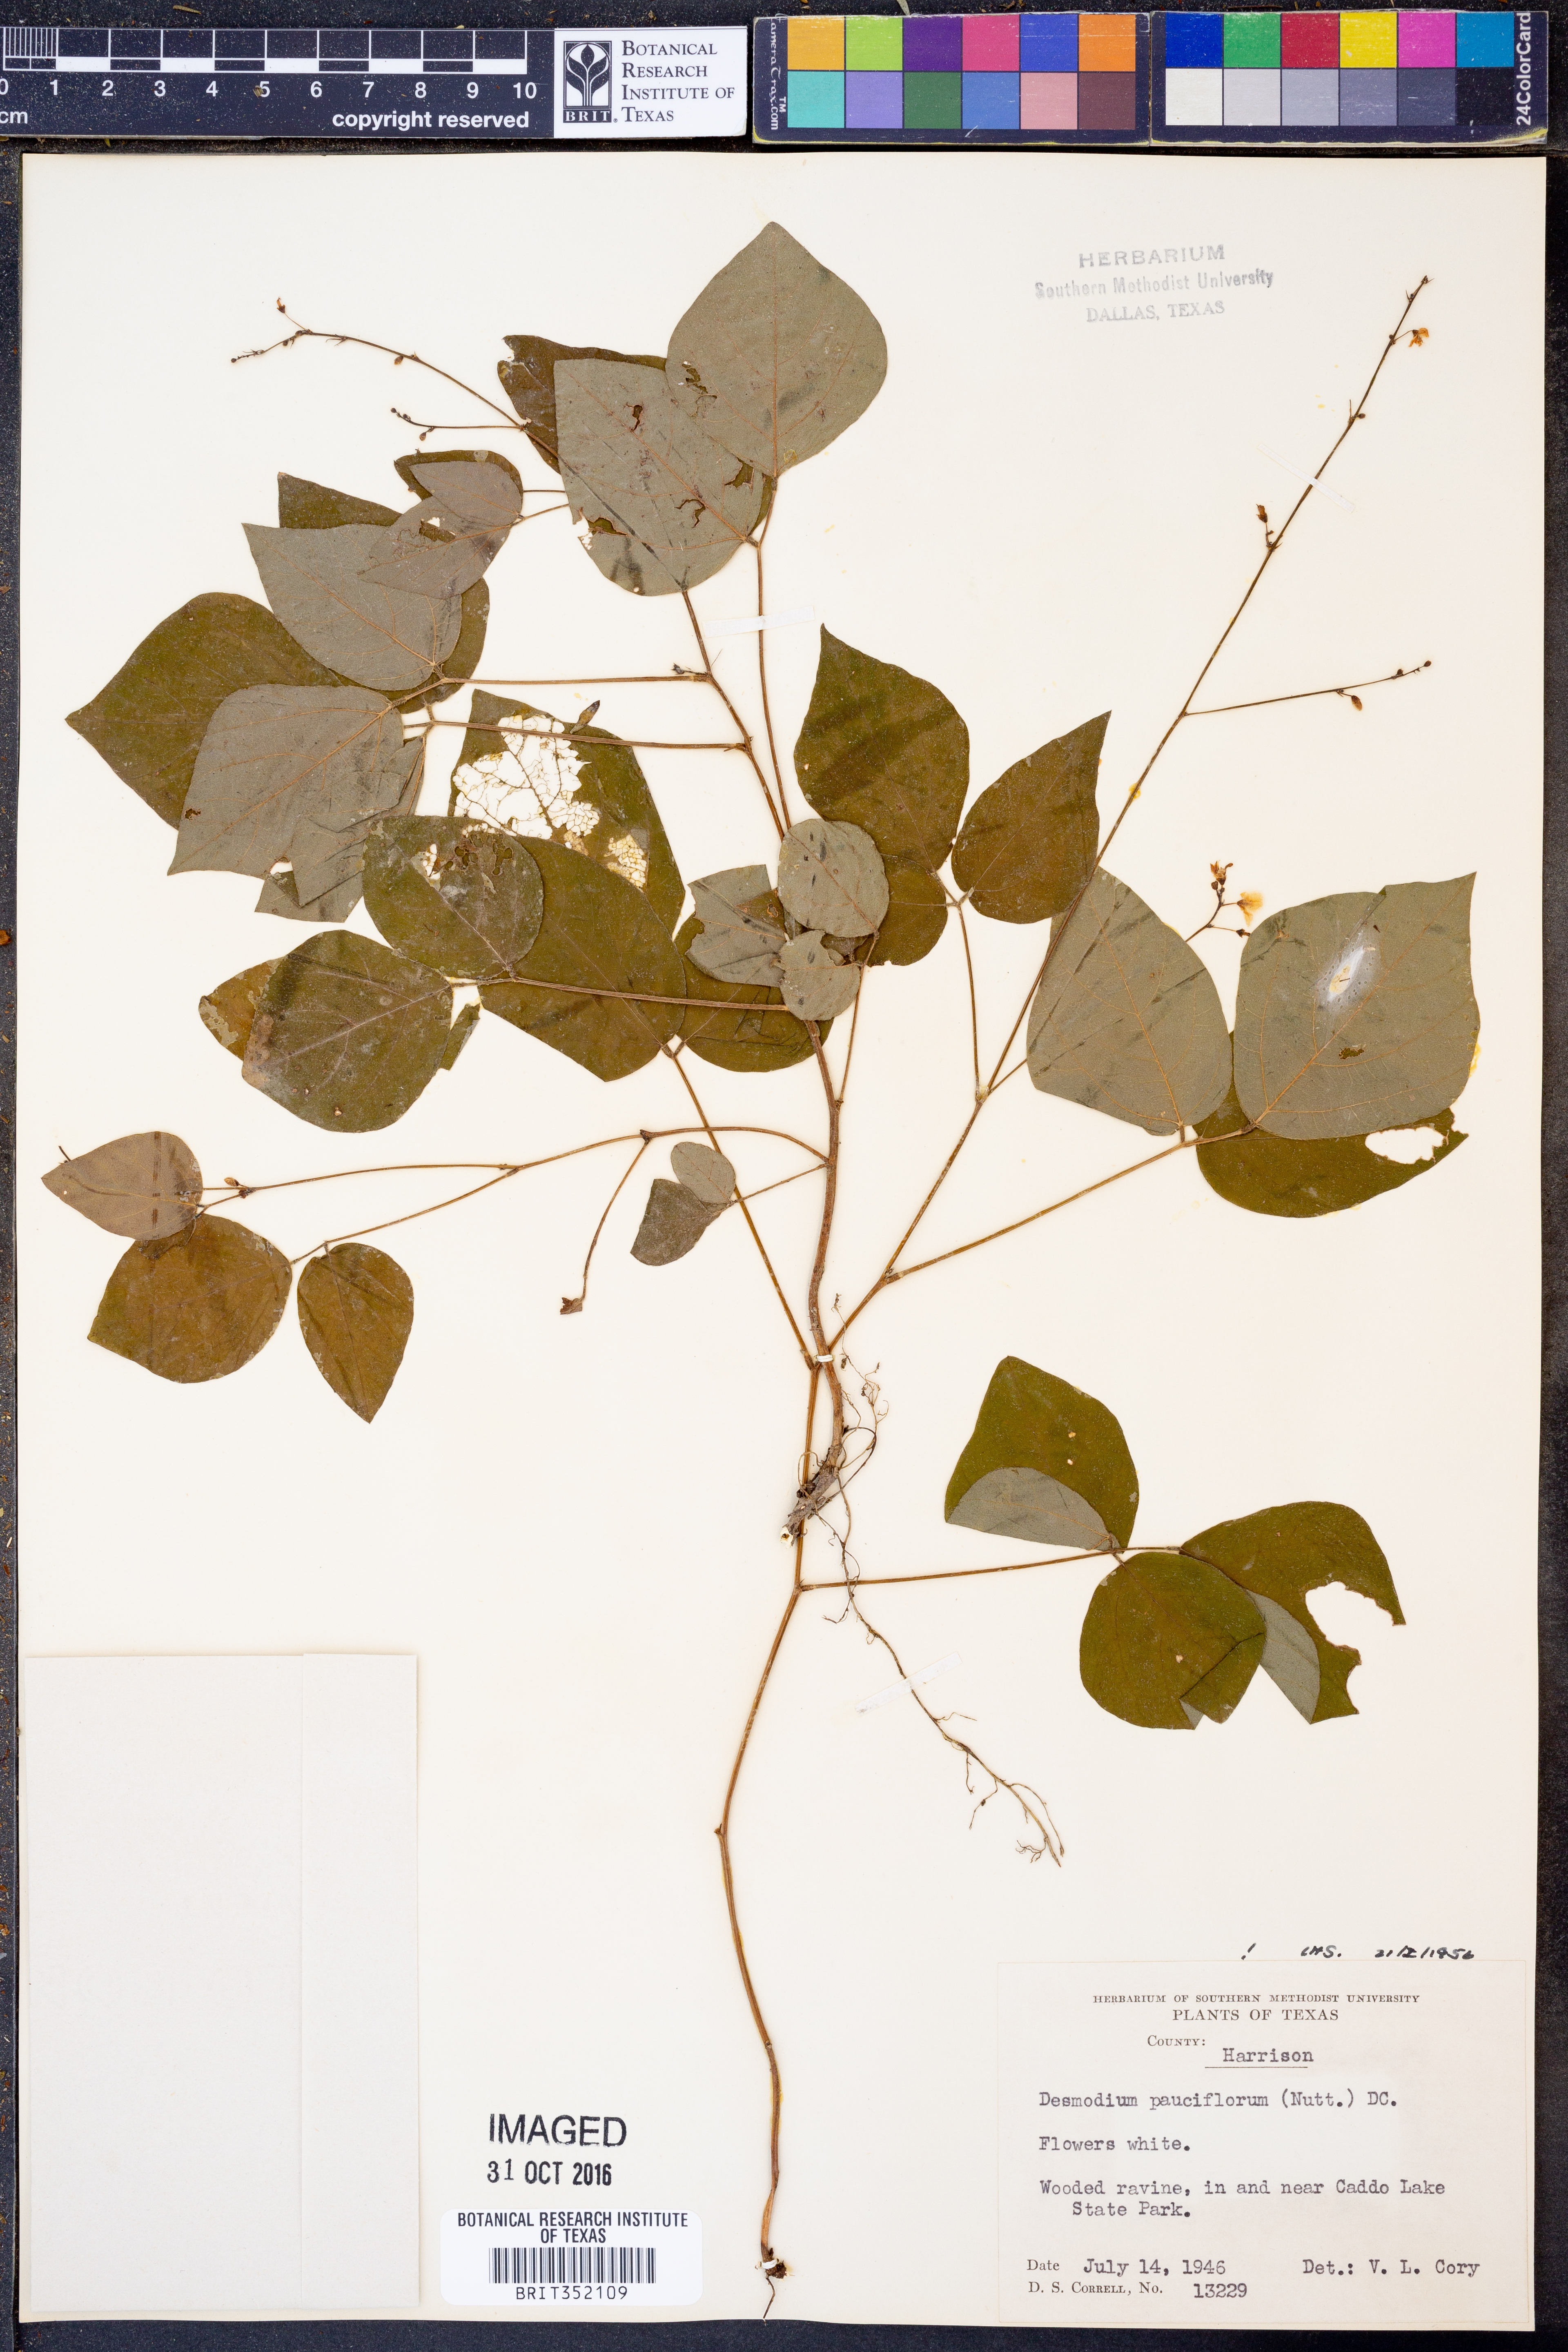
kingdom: Plantae
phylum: Tracheophyta
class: Magnoliopsida
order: Fabales
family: Fabaceae
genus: Hylodesmum
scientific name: Hylodesmum pauciflorum
